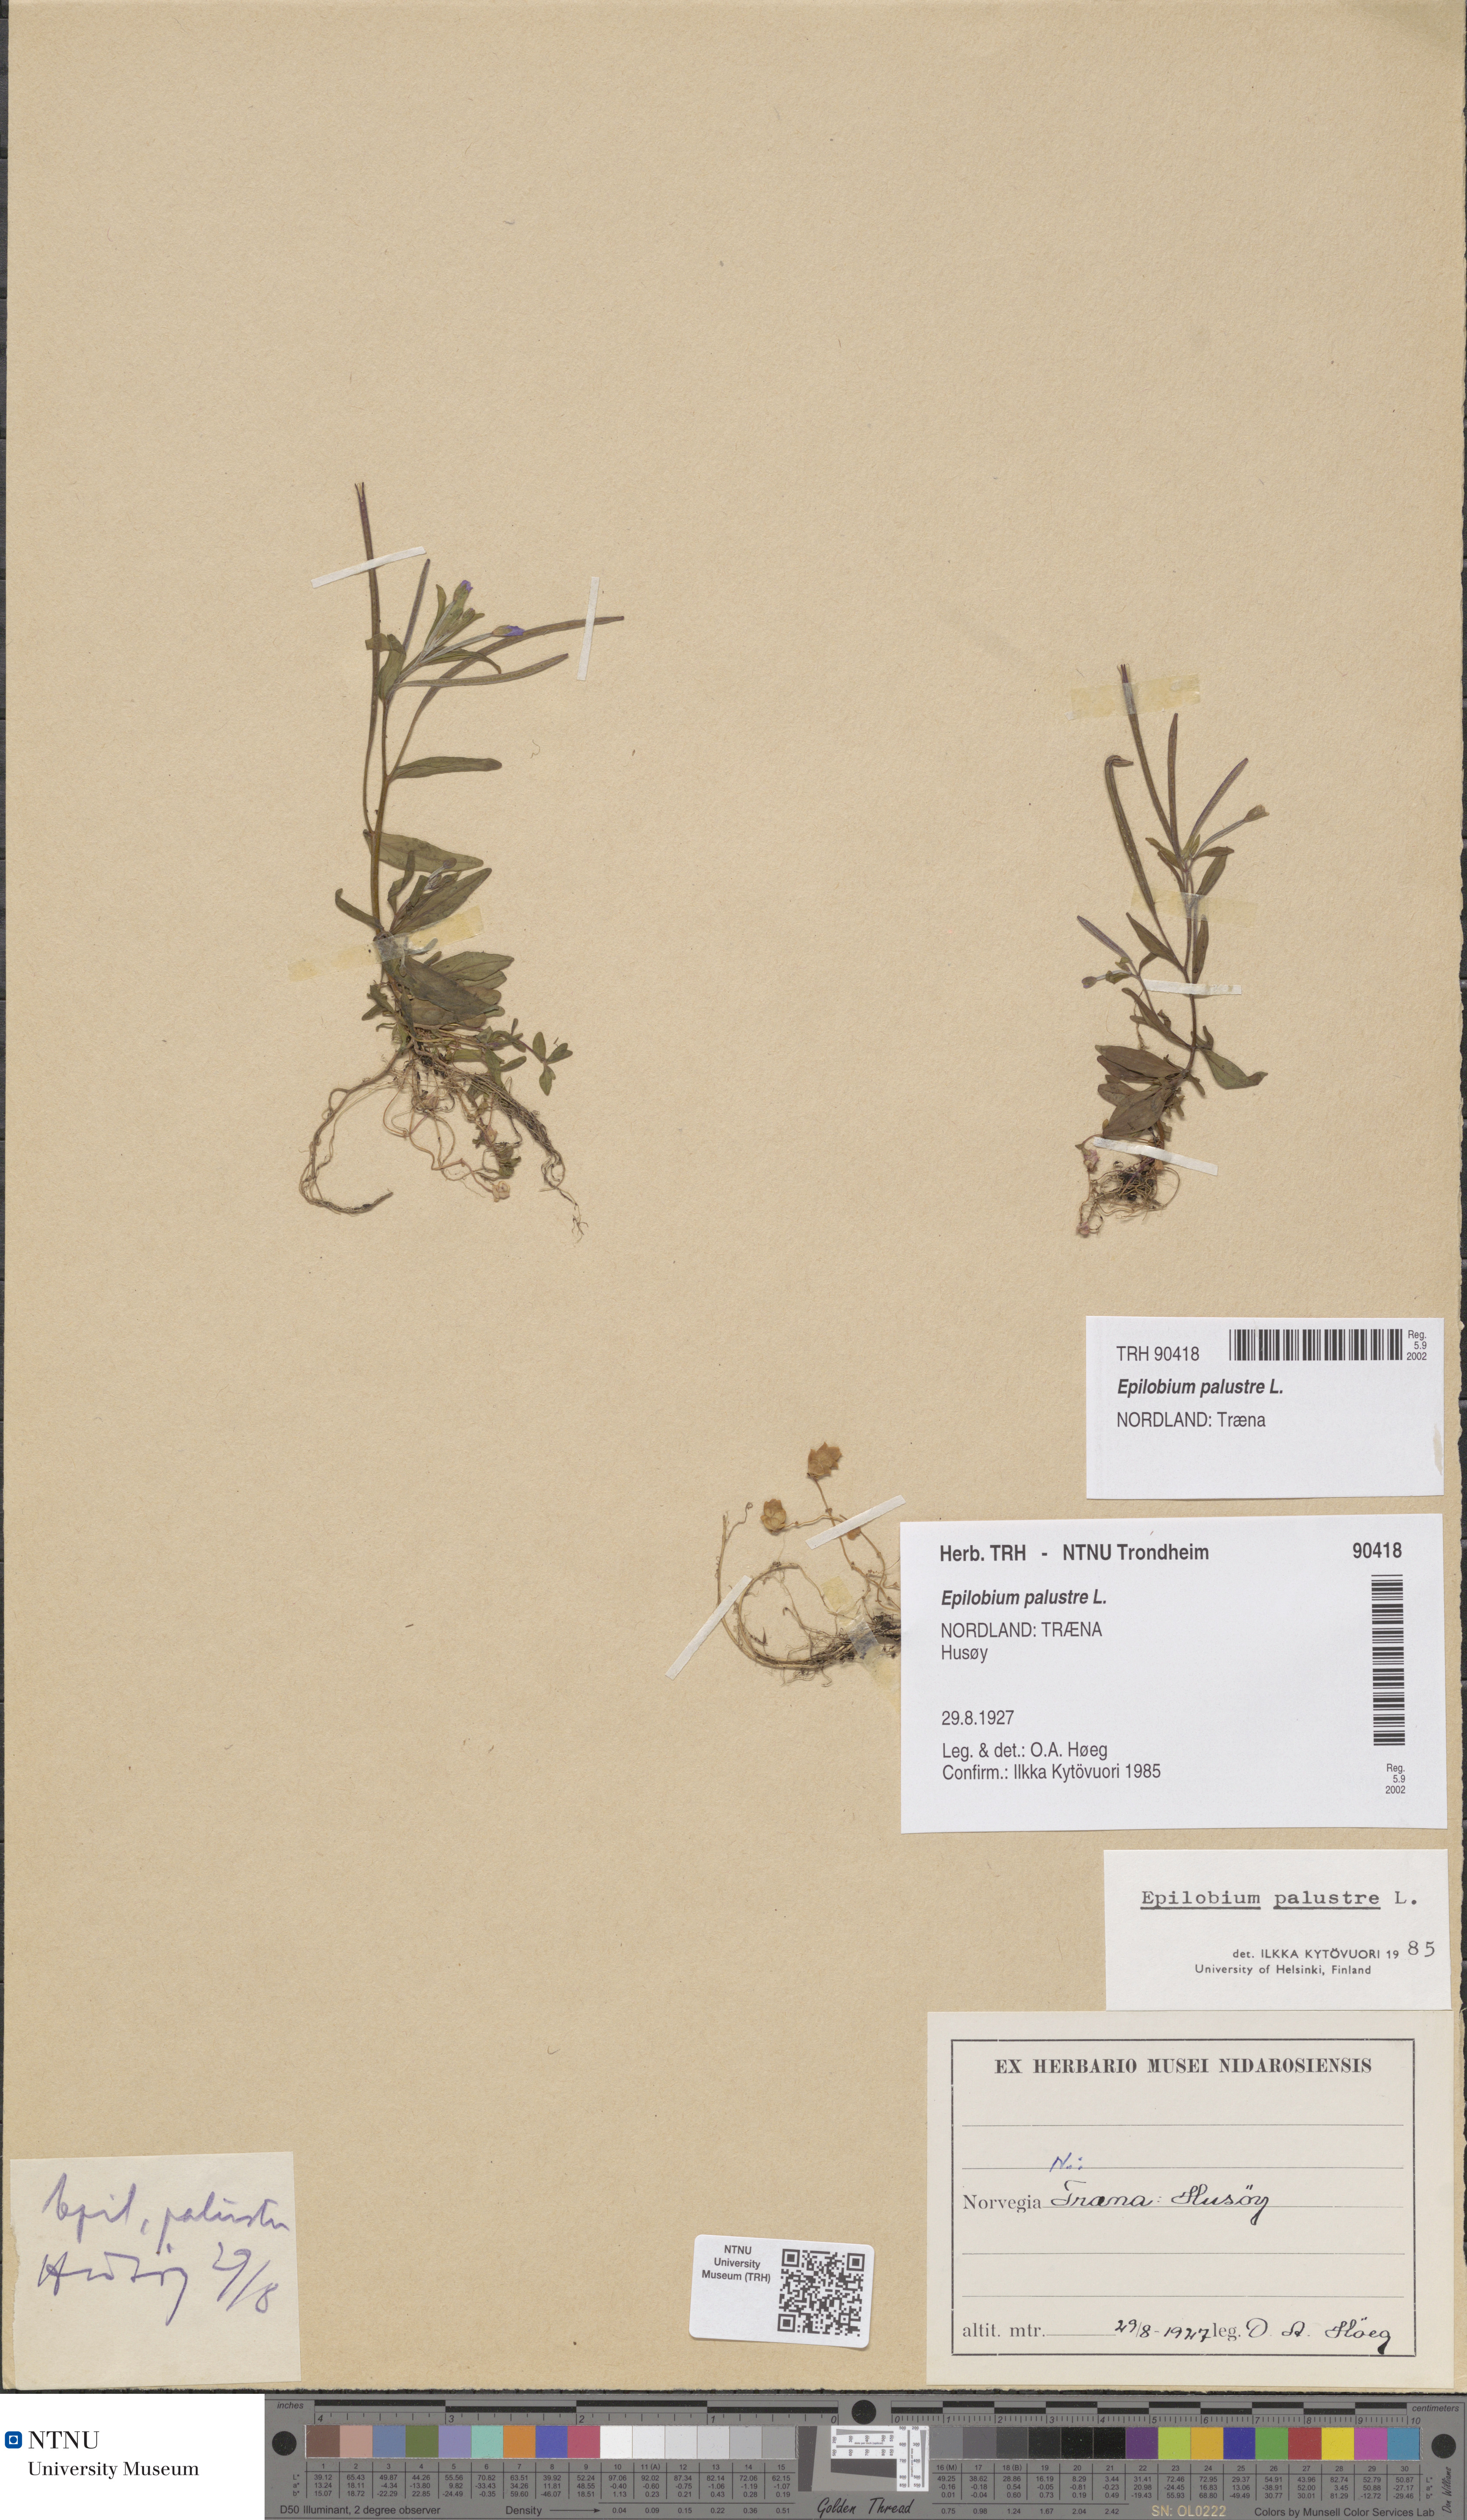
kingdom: Plantae
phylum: Tracheophyta
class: Magnoliopsida
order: Myrtales
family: Onagraceae
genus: Epilobium
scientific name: Epilobium palustre
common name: Marsh willowherb
